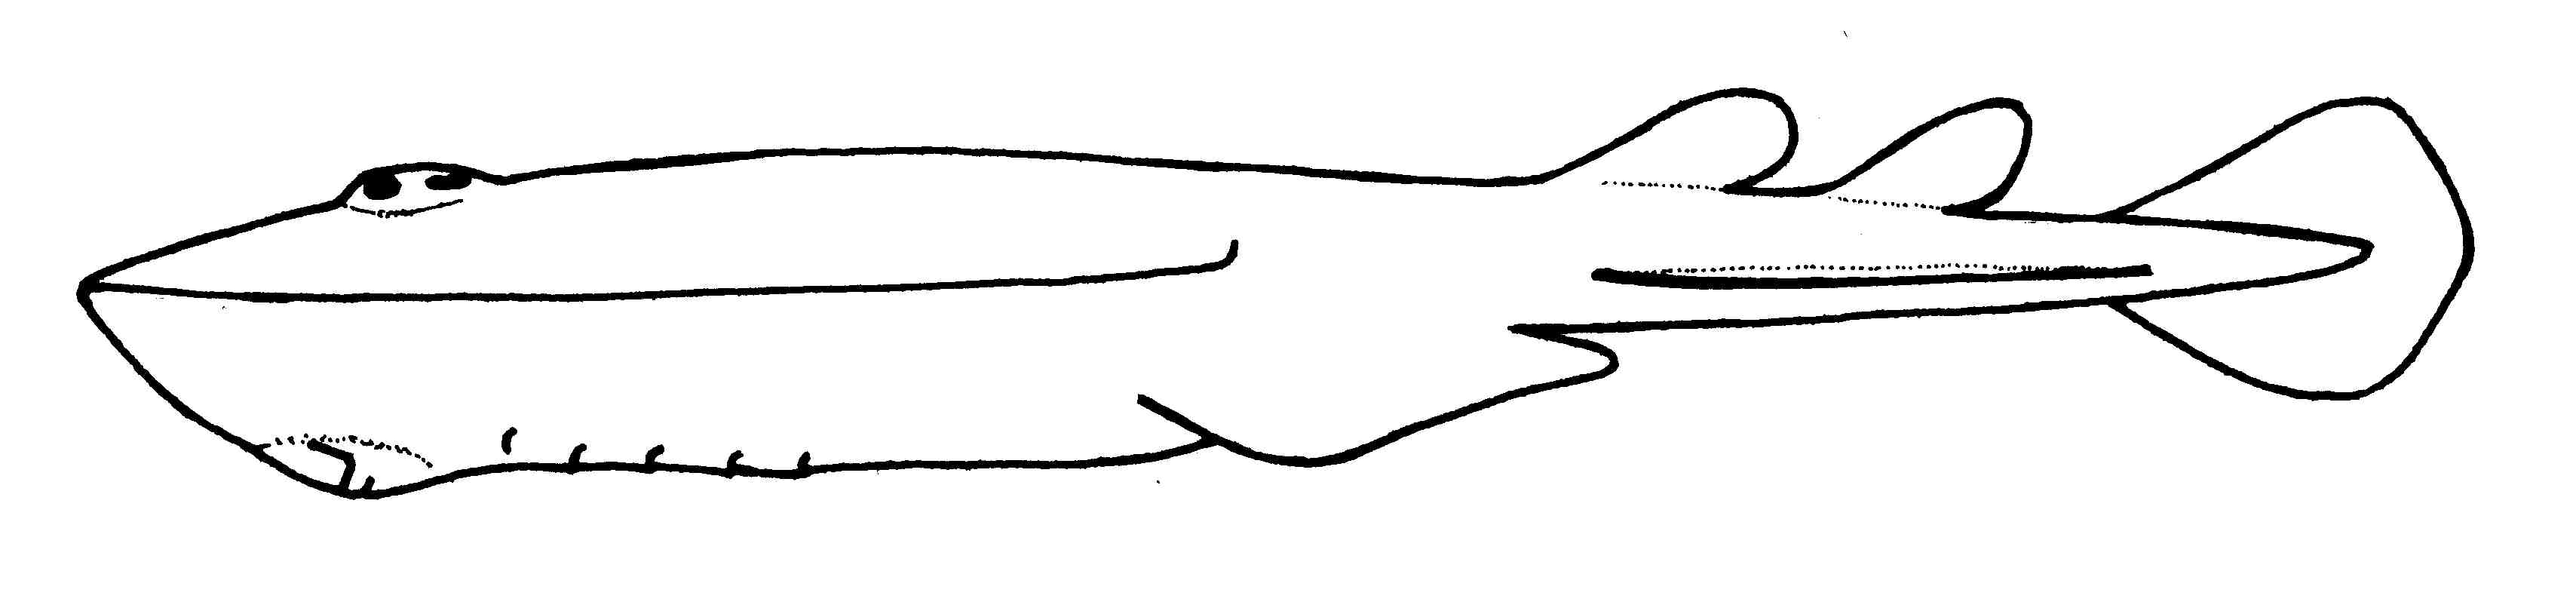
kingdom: Animalia
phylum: Chordata
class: Elasmobranchii
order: Torpediniformes
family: Narkidae
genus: Heteronarce
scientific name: Heteronarce garmani
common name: Natal electric ray
